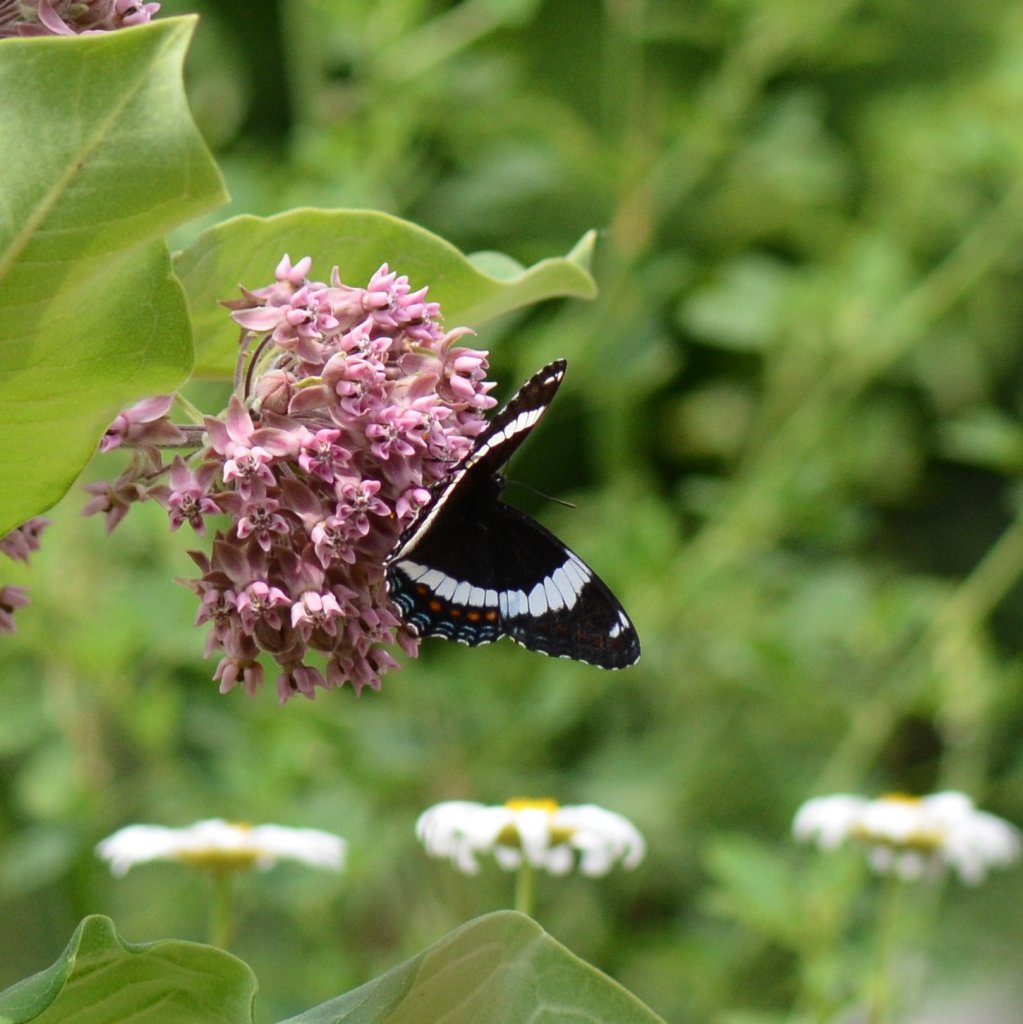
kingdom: Animalia
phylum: Arthropoda
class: Insecta
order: Lepidoptera
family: Nymphalidae
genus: Limenitis
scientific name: Limenitis arthemis
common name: Red-spotted Admiral
